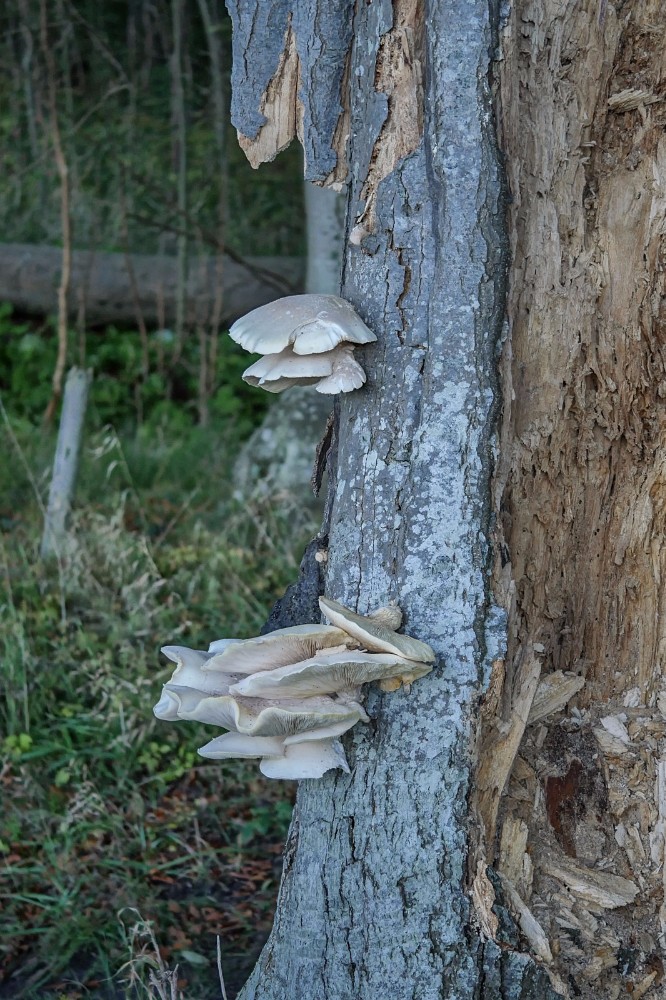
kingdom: Fungi
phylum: Basidiomycota
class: Agaricomycetes
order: Agaricales
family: Pleurotaceae
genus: Pleurotus
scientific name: Pleurotus dryinus
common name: korkagtig østershat
